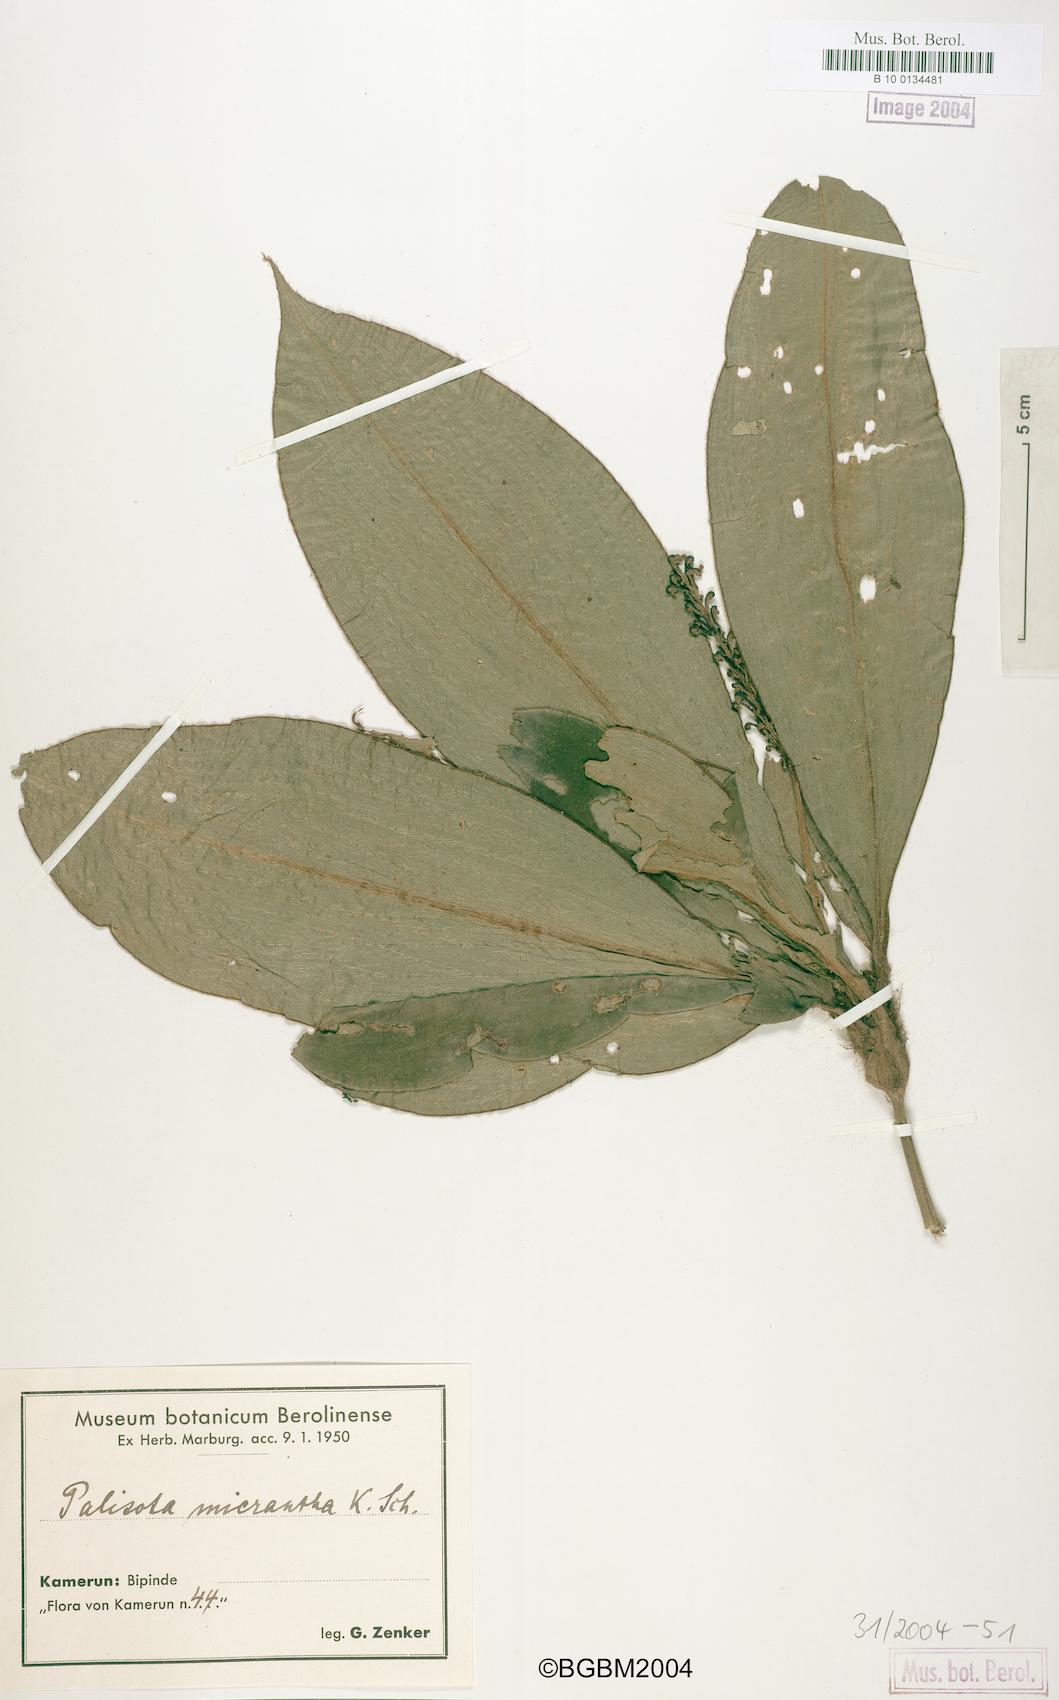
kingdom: Plantae
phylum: Tracheophyta
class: Liliopsida
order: Commelinales
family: Commelinaceae
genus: Palisota
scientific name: Palisota ambigua
